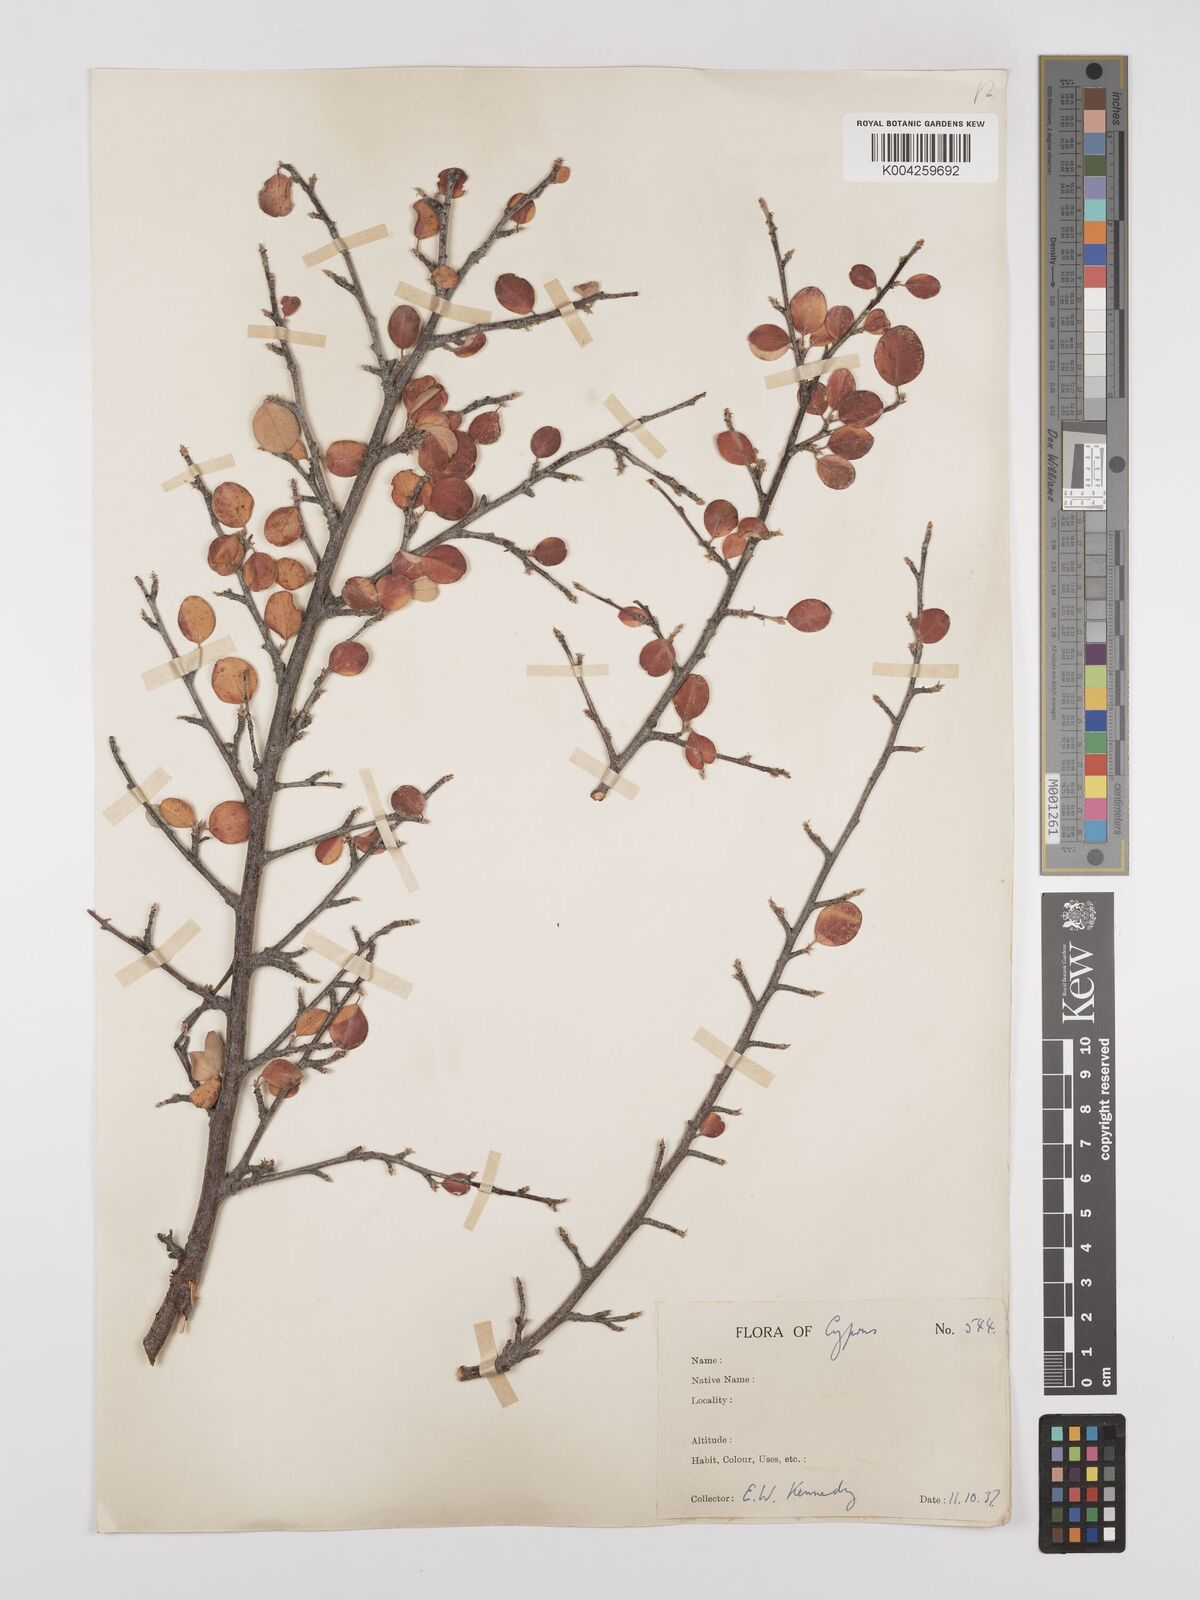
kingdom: Plantae
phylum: Tracheophyta
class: Magnoliopsida
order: Rosales
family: Rosaceae
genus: Cotoneaster
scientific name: Cotoneaster racemiflorus
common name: Cluster-flower cotoneaster
